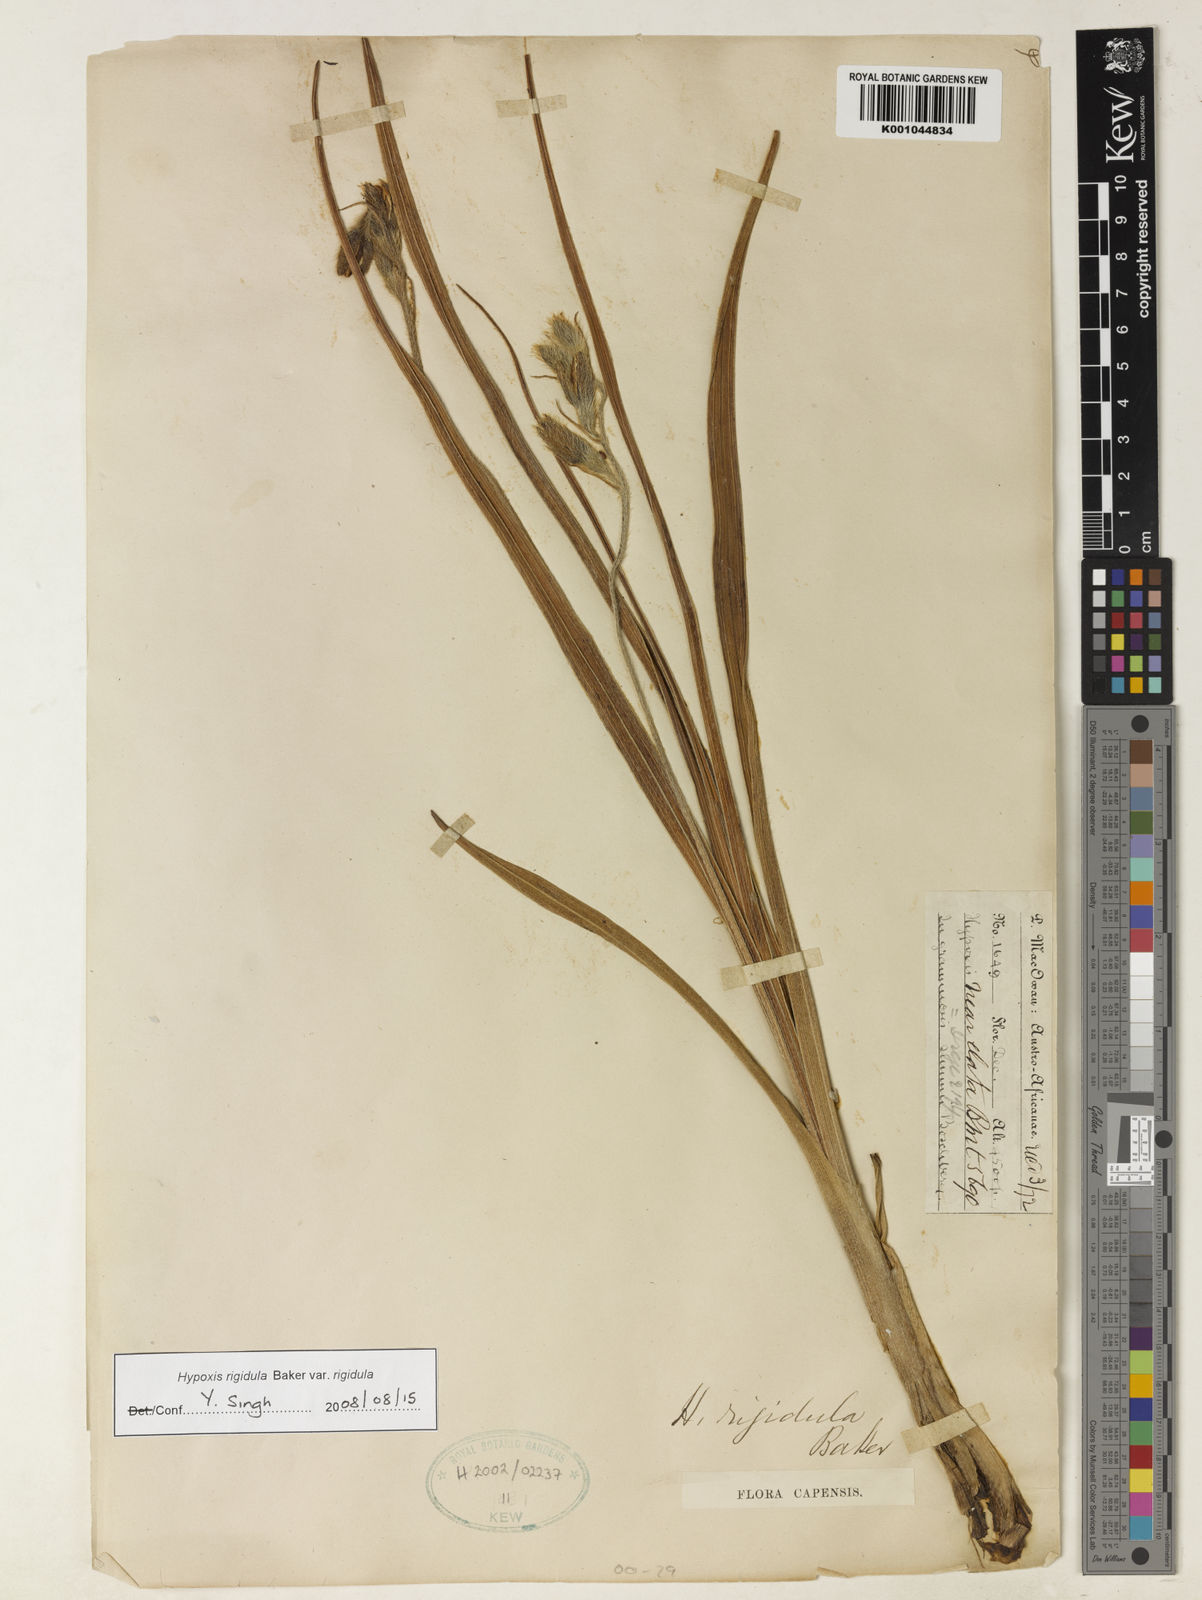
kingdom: Plantae
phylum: Tracheophyta
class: Liliopsida
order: Asparagales
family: Hypoxidaceae
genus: Hypoxis
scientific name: Hypoxis rigidula
